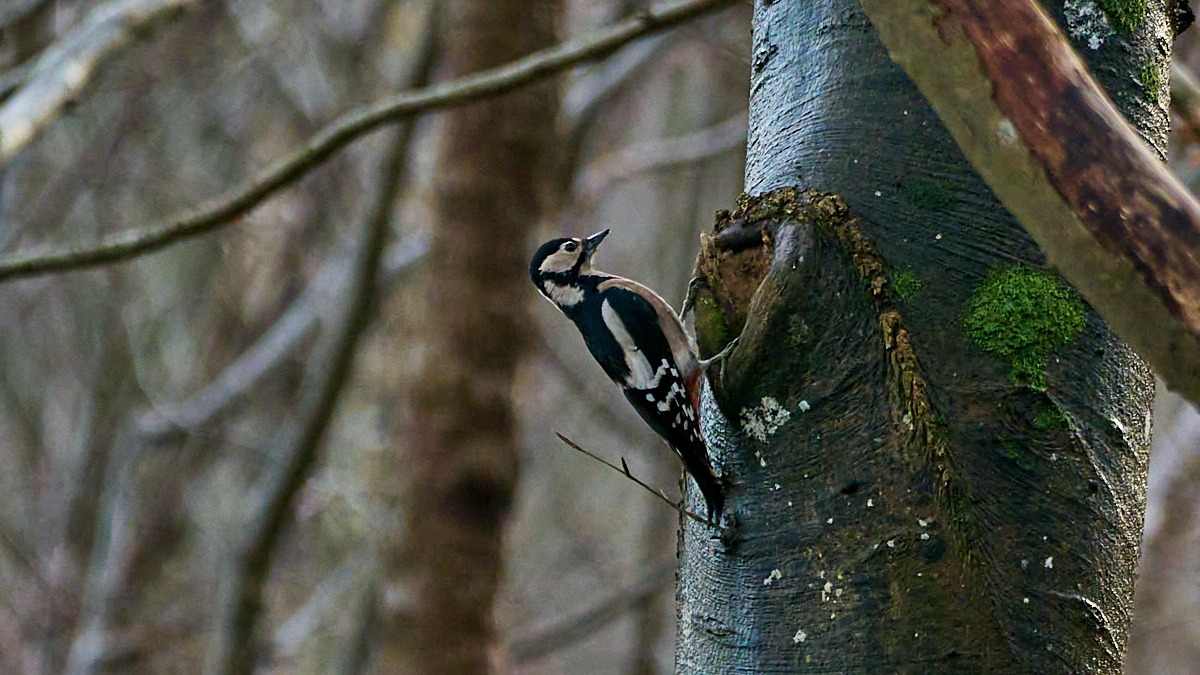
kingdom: Animalia
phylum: Chordata
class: Aves
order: Piciformes
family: Picidae
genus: Dendrocopos
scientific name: Dendrocopos major
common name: Stor flagspætte
